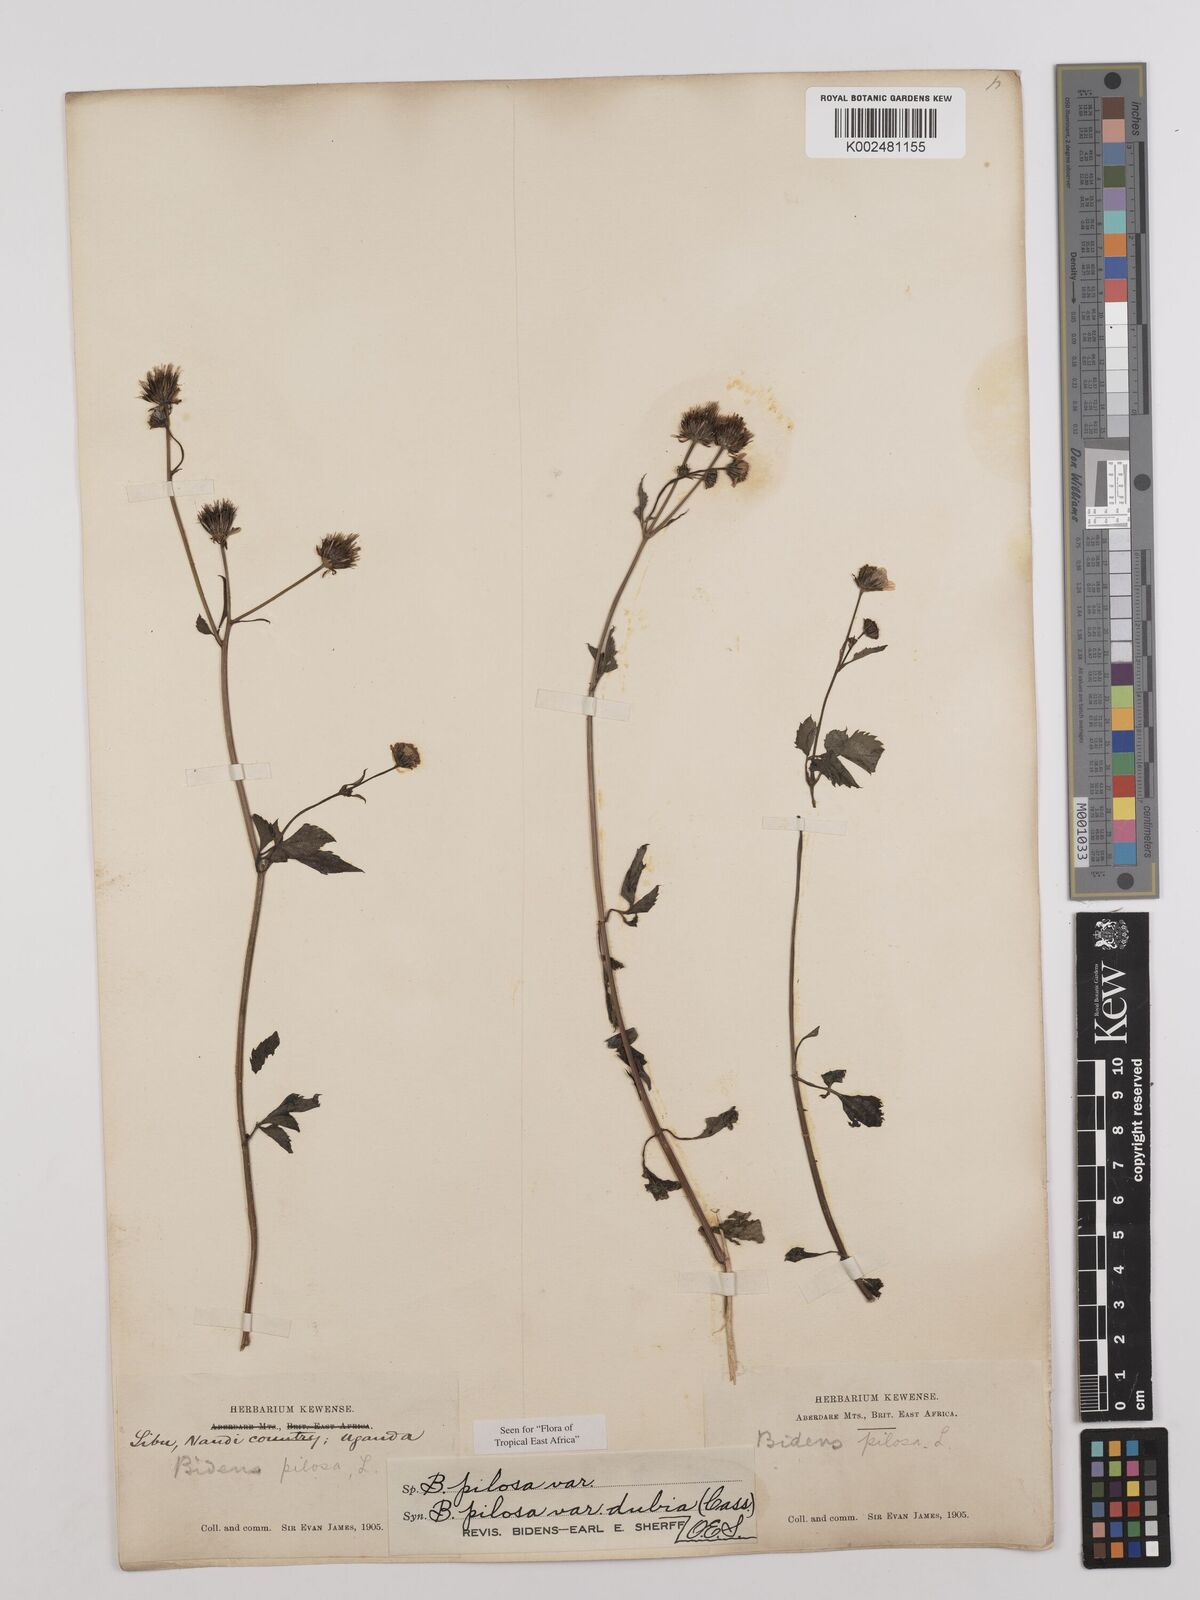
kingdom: Plantae
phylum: Tracheophyta
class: Magnoliopsida
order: Asterales
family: Asteraceae
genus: Bidens
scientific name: Bidens pilosa
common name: Black-jack
